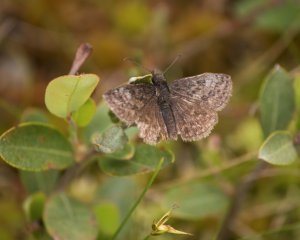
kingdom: Animalia
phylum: Arthropoda
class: Insecta
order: Lepidoptera
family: Hesperiidae
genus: Erynnis
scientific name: Erynnis icelus
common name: Dreamy Duskywing
